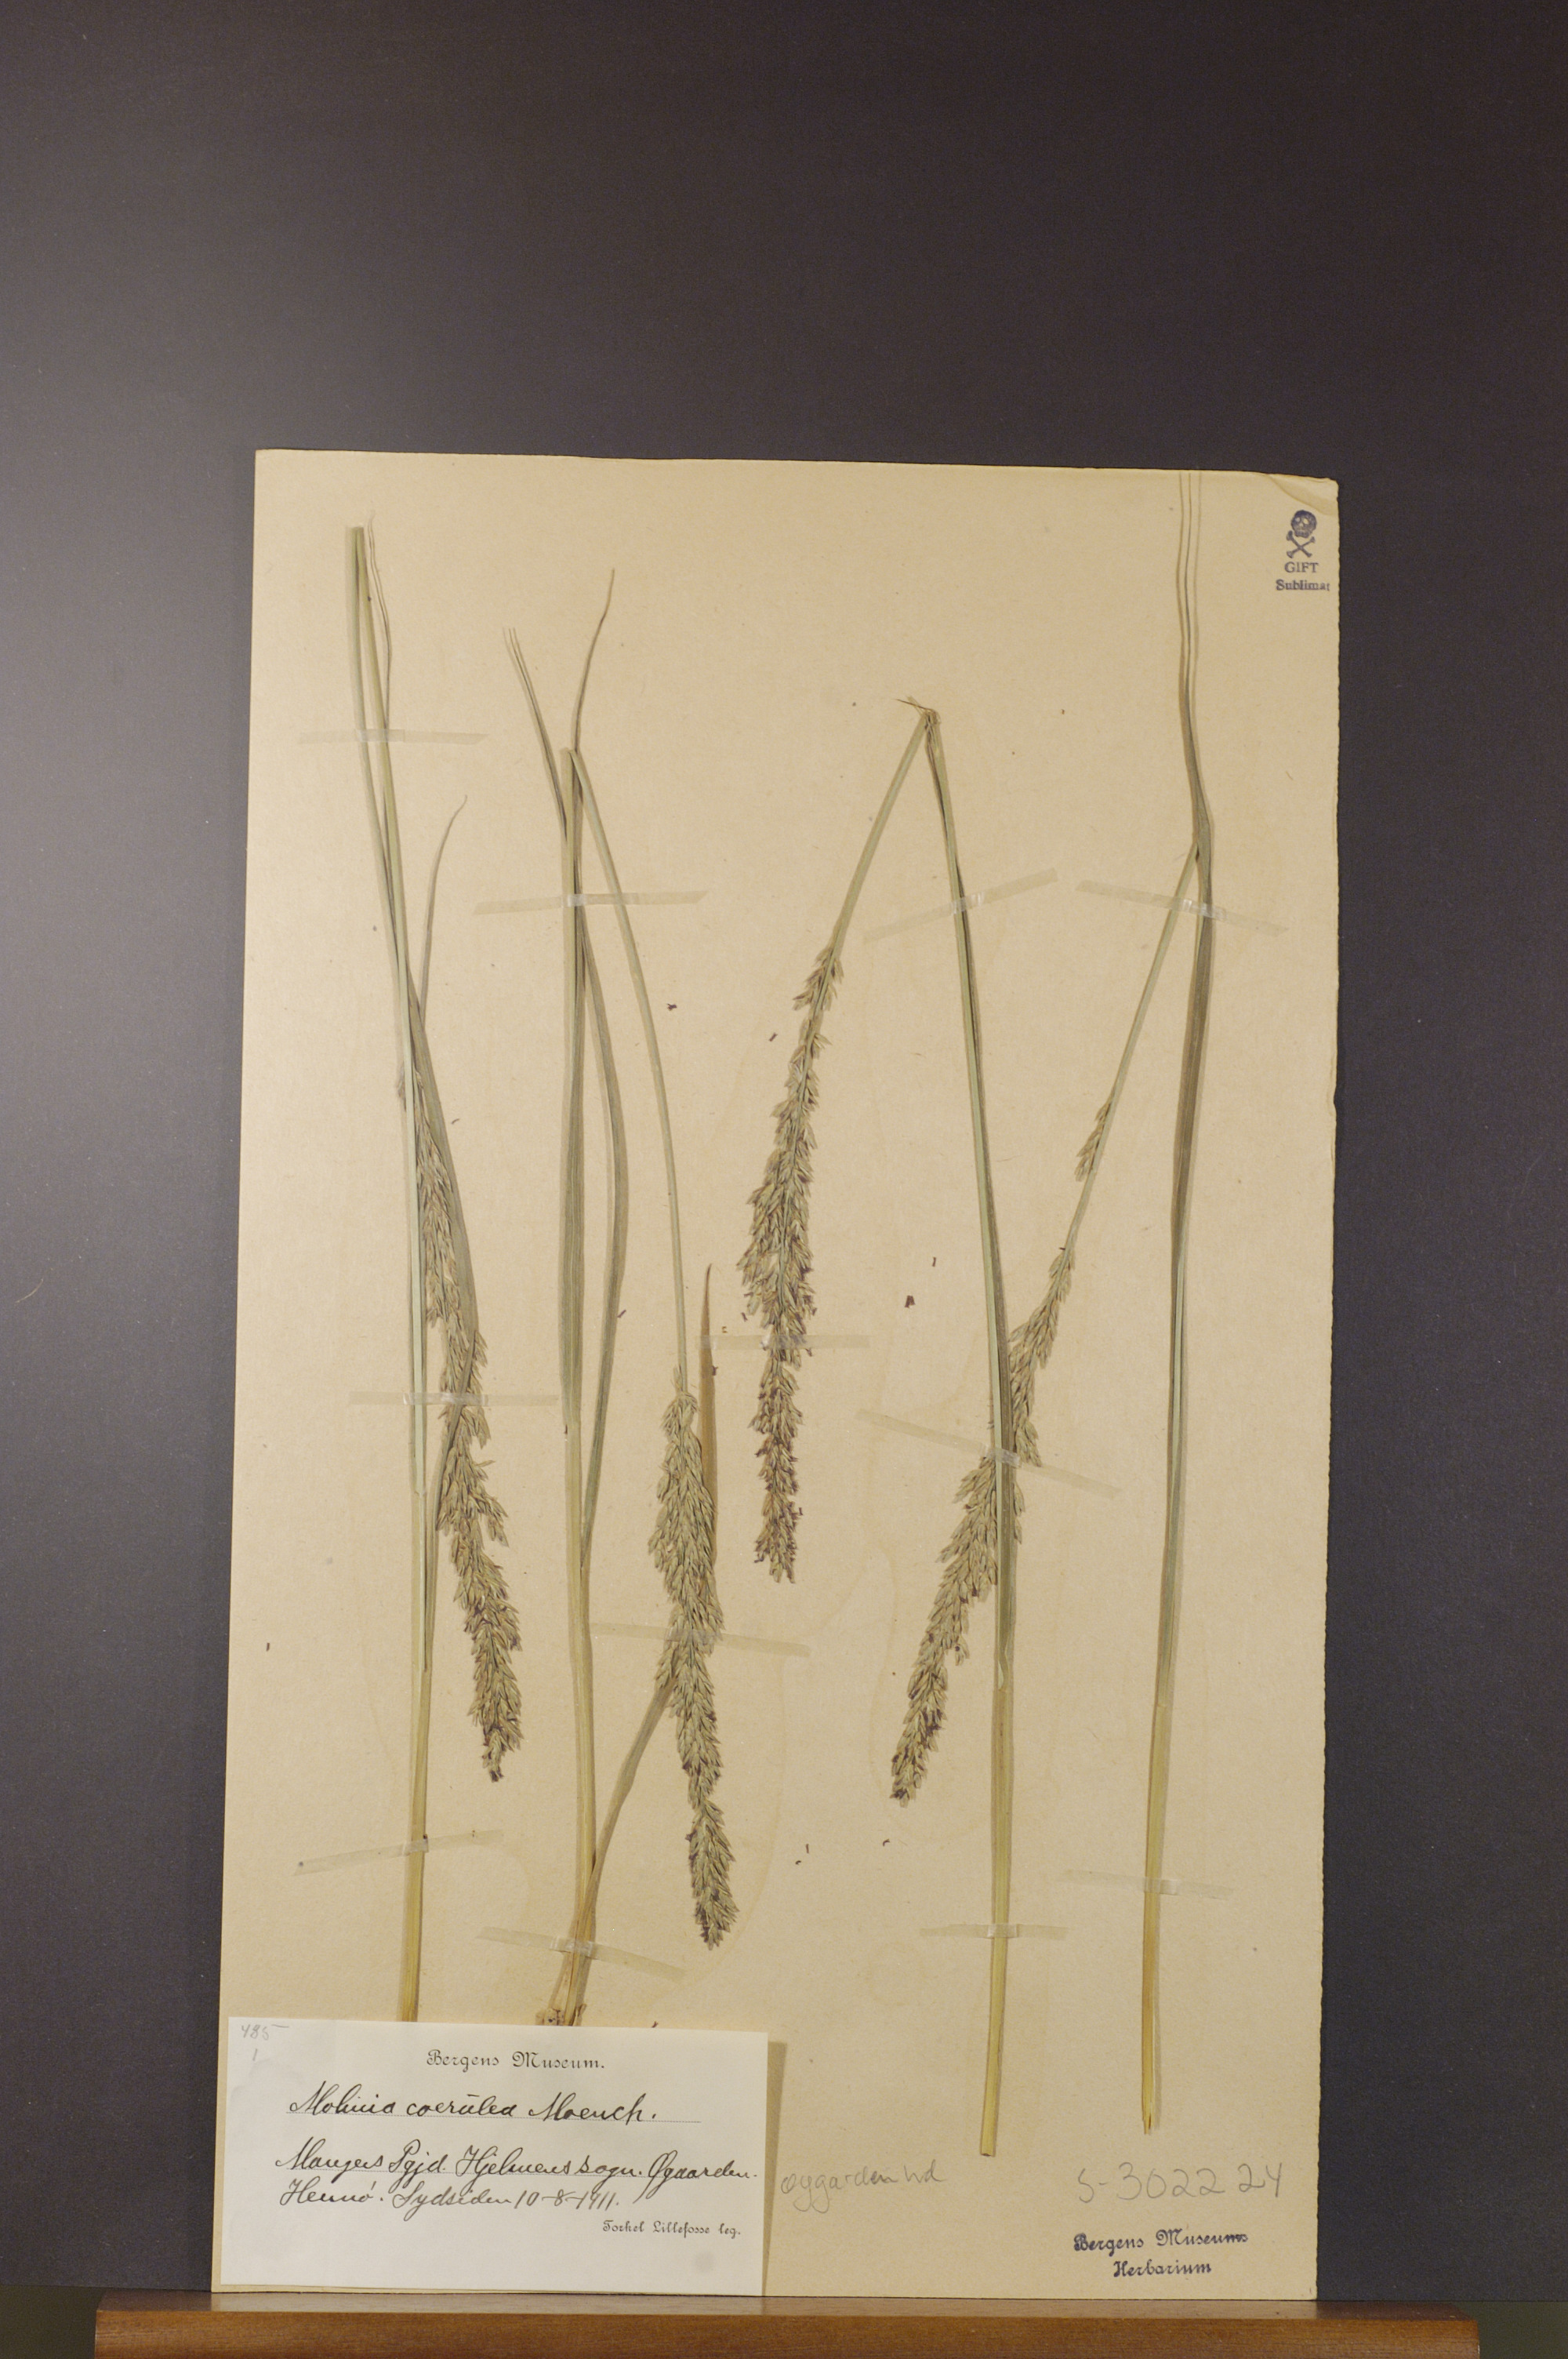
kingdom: Plantae
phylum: Tracheophyta
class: Liliopsida
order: Poales
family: Poaceae
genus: Molinia
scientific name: Molinia caerulea
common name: Purple moor-grass
